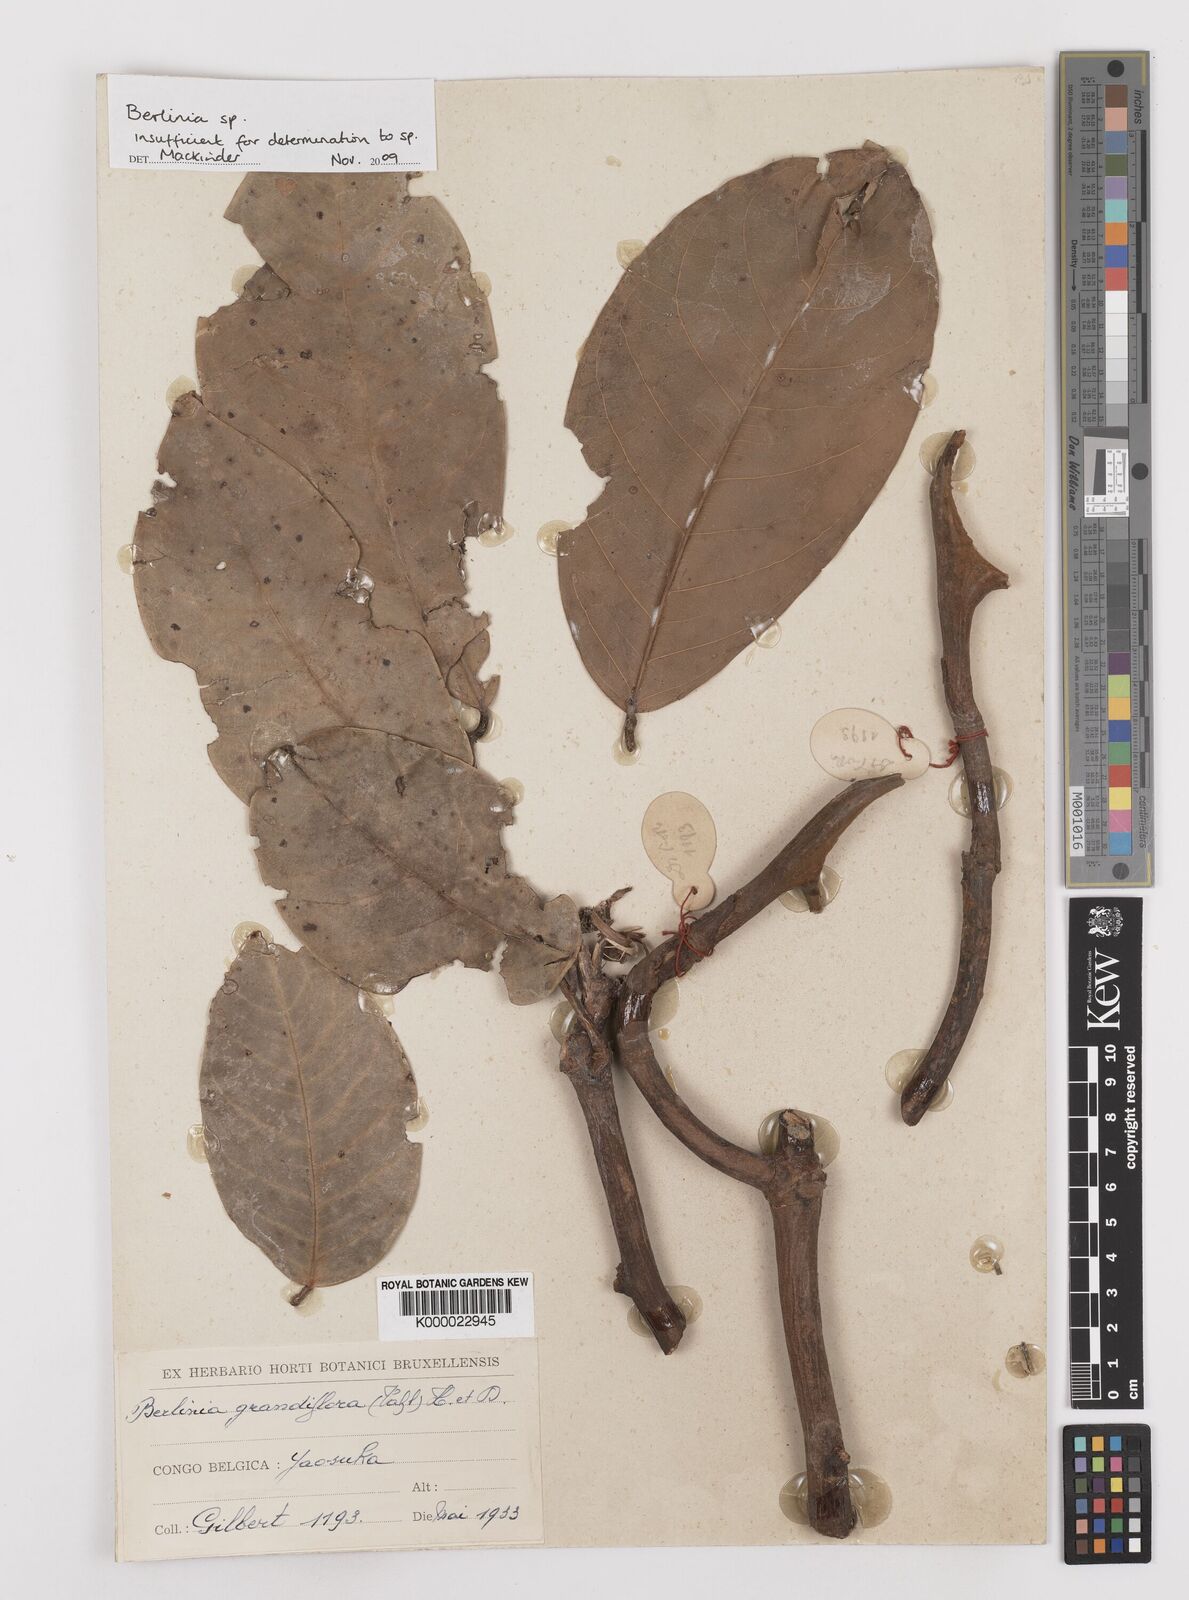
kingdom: Plantae
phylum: Tracheophyta
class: Magnoliopsida
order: Fabales
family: Fabaceae
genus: Berlinia
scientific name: Berlinia
